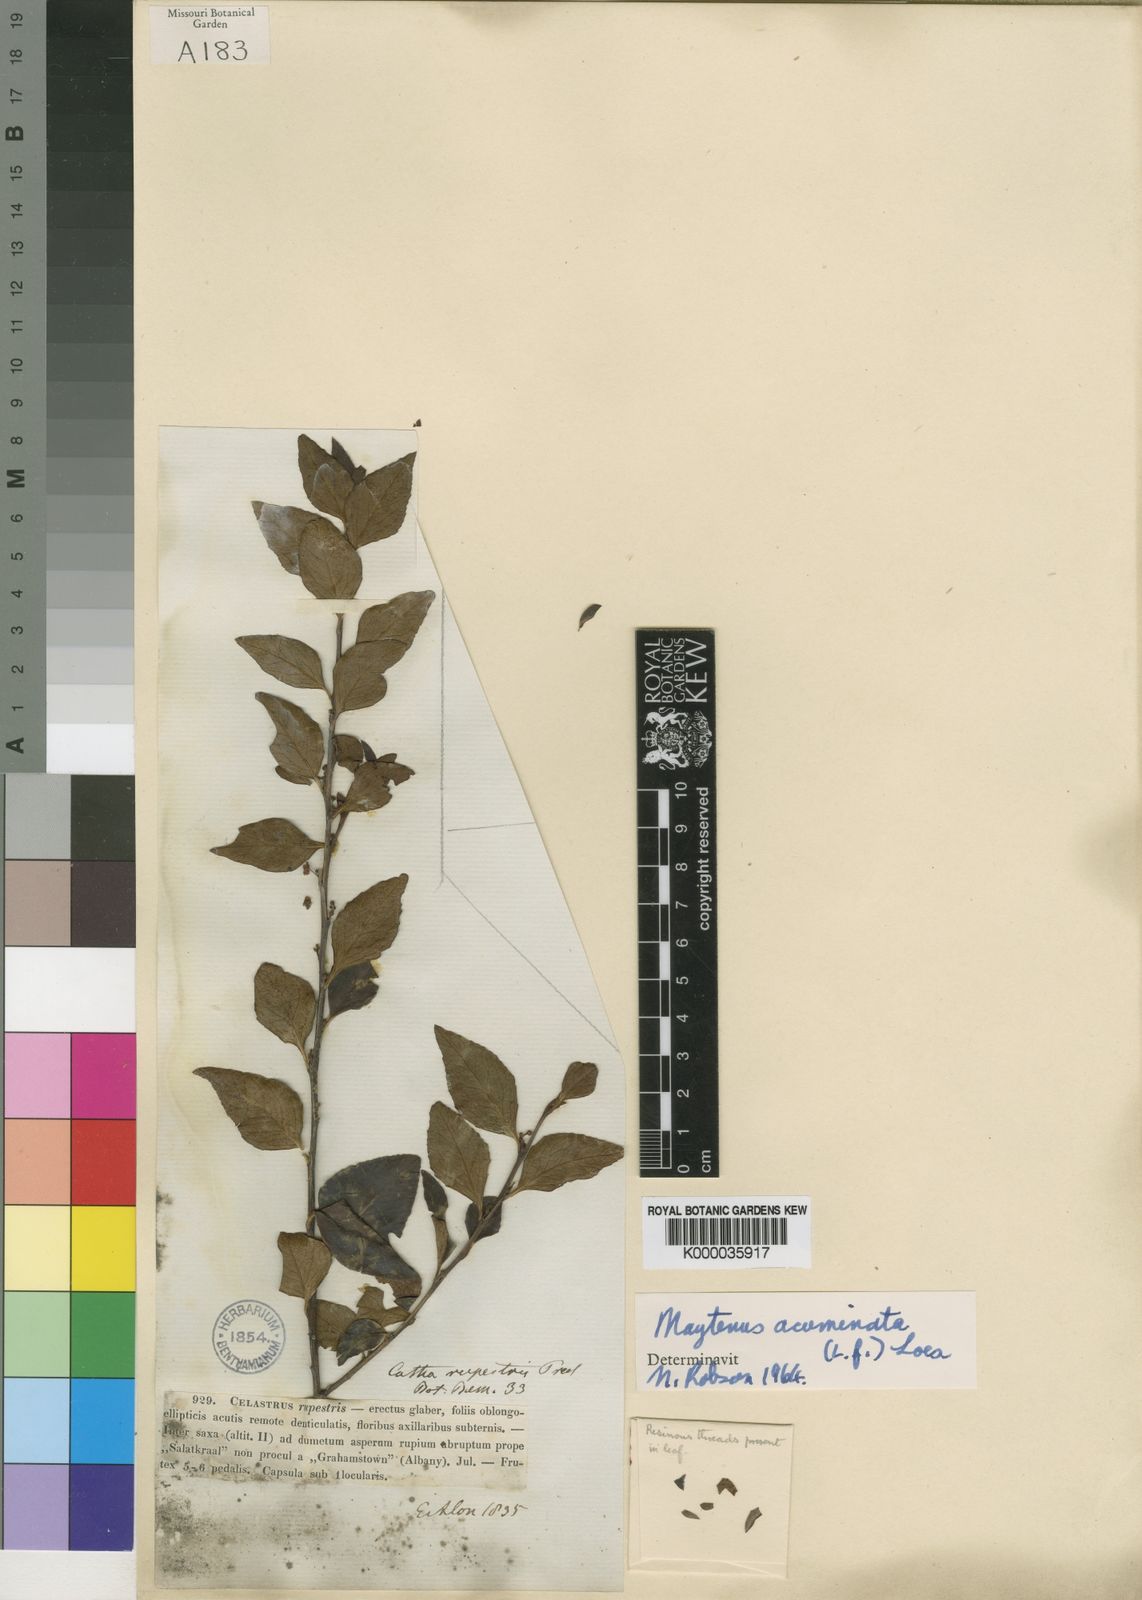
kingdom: Plantae
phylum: Tracheophyta
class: Magnoliopsida
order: Celastrales
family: Celastraceae
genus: Gymnosporia
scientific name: Gymnosporia acuminata
